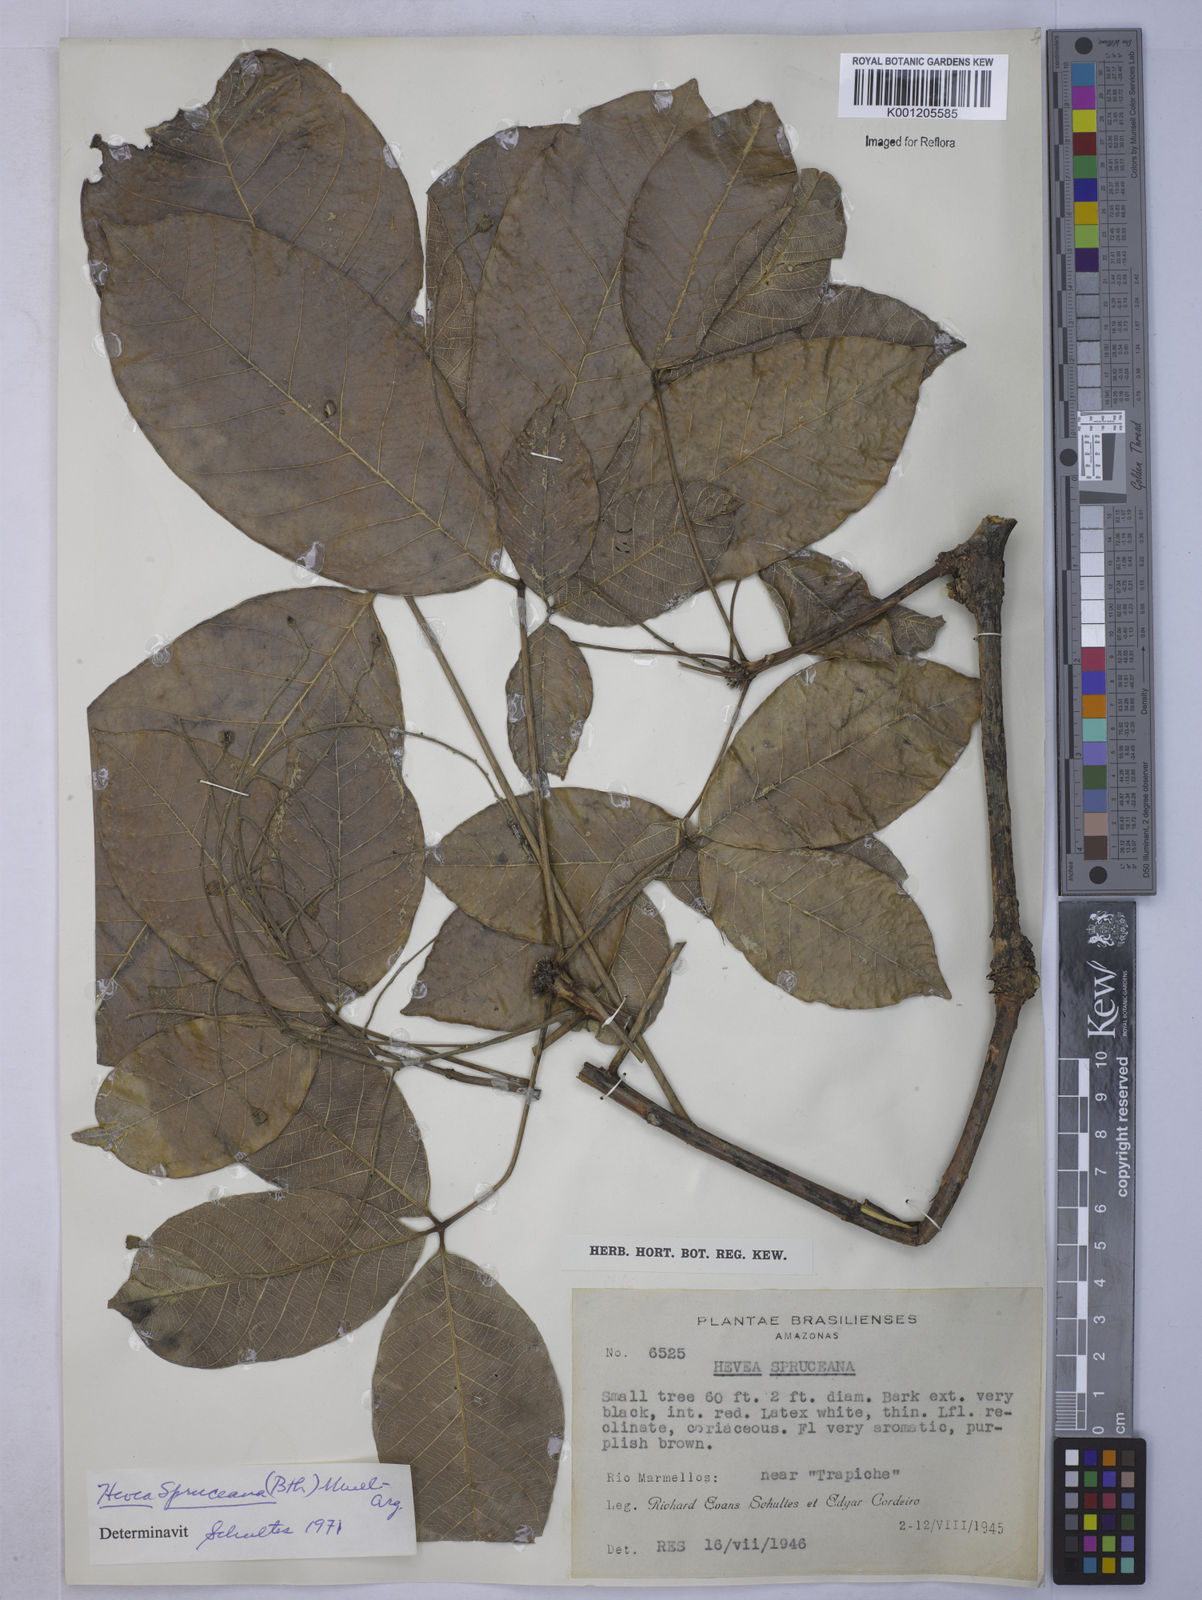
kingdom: Plantae
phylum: Tracheophyta
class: Magnoliopsida
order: Malpighiales
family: Euphorbiaceae
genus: Hevea
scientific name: Hevea
